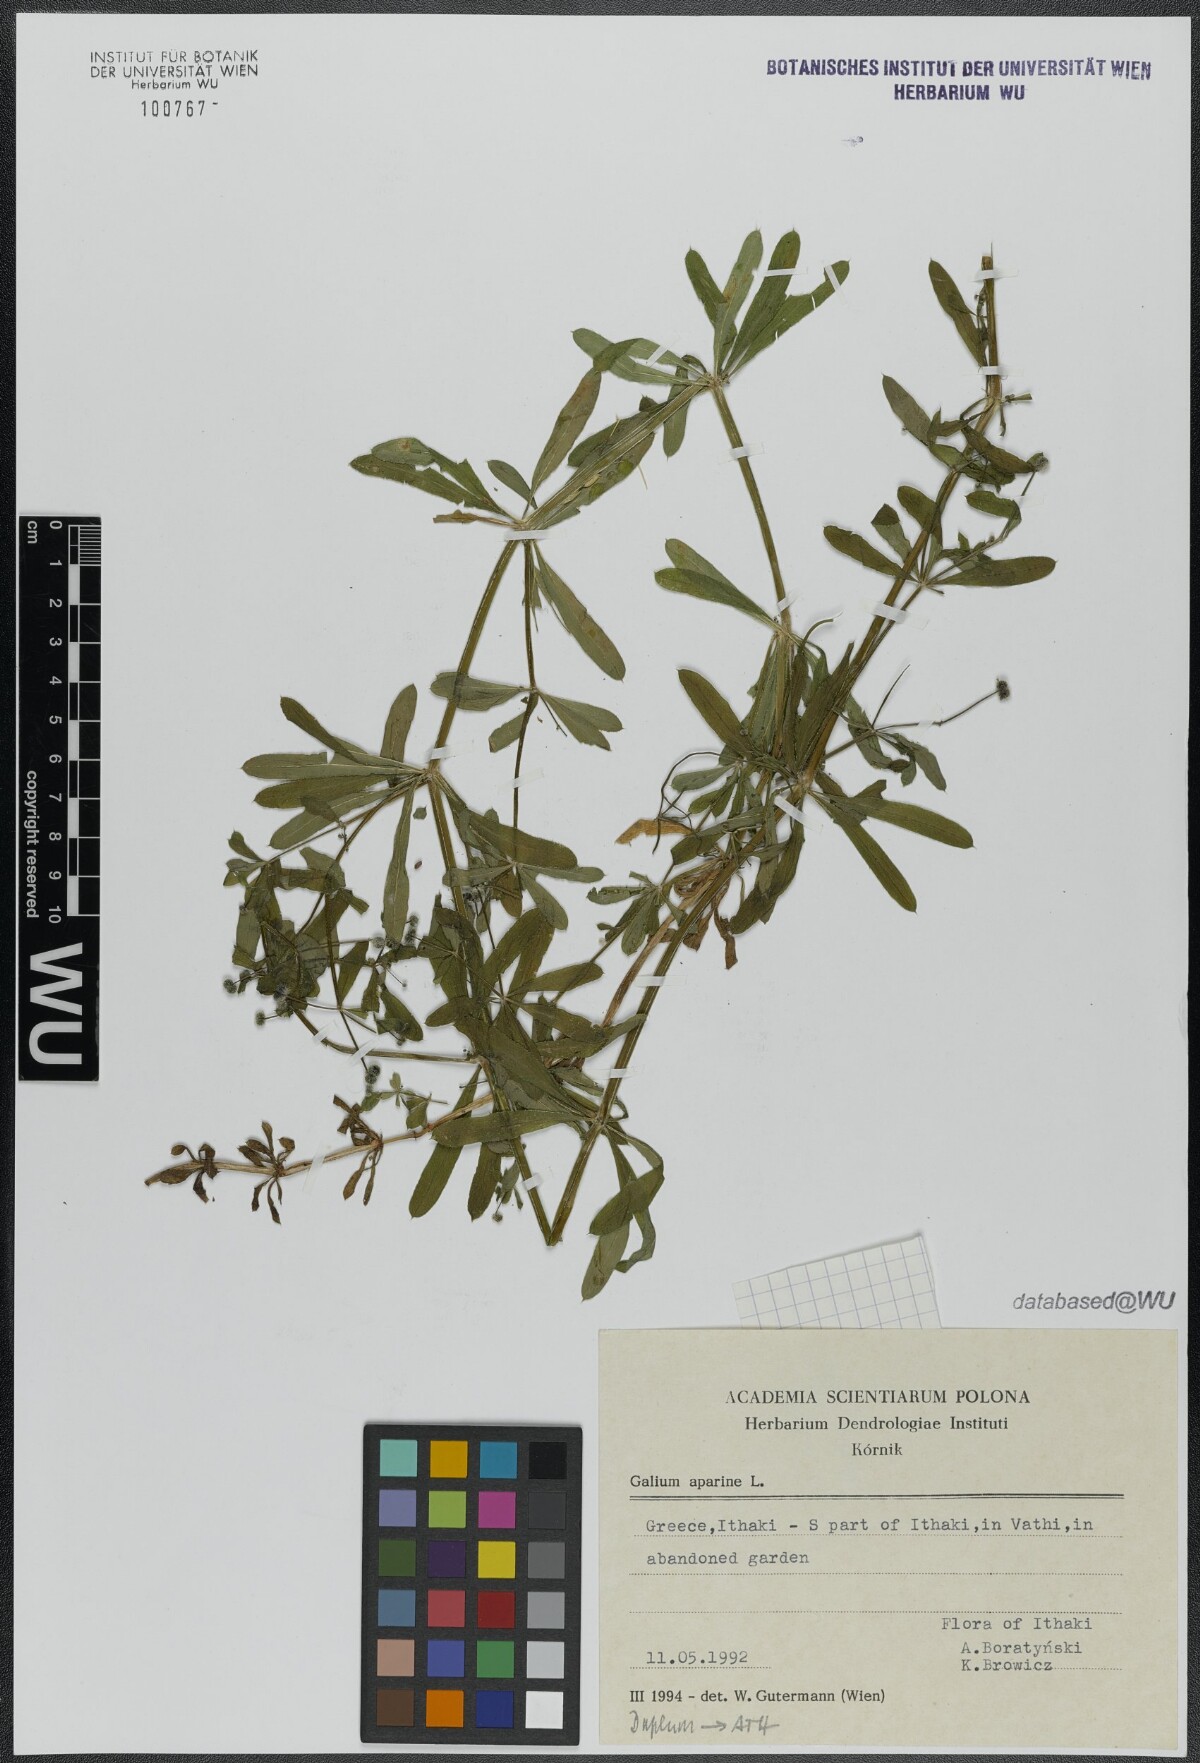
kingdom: Plantae
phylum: Tracheophyta
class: Magnoliopsida
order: Gentianales
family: Rubiaceae
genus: Galium
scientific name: Galium aparine
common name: Cleavers
